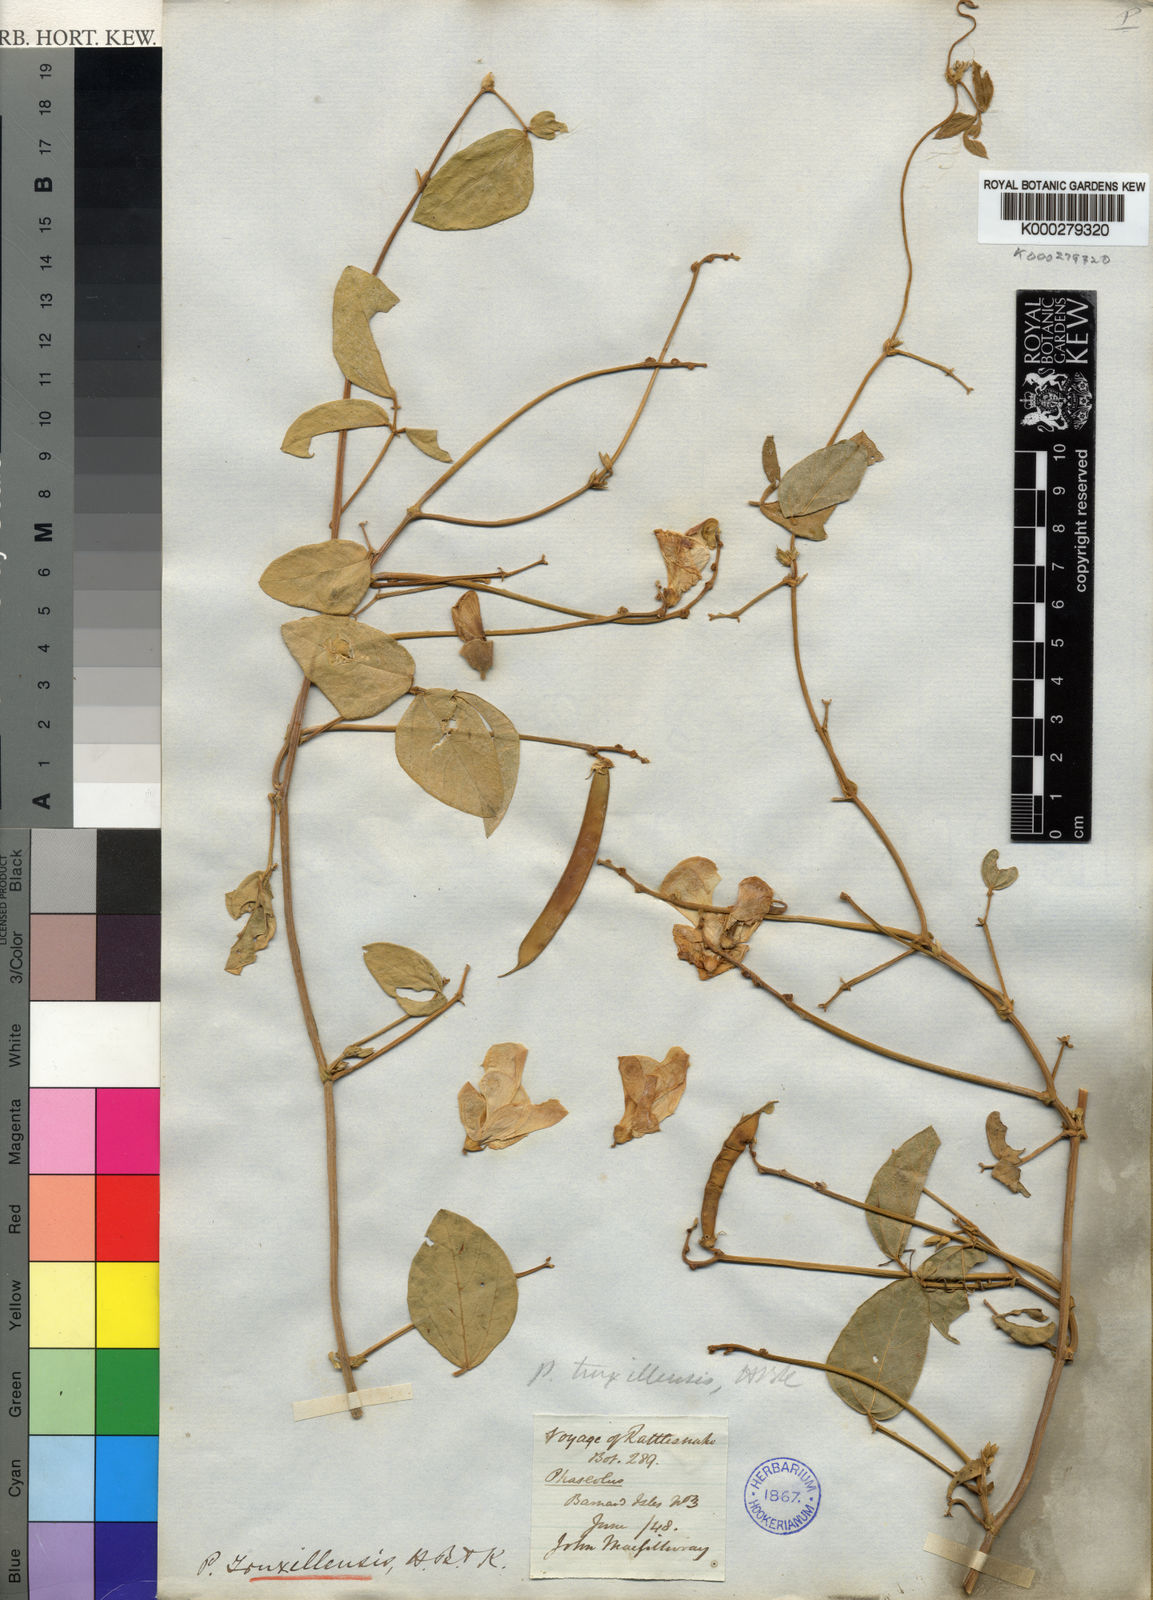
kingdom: Plantae
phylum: Tracheophyta
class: Magnoliopsida
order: Fabales
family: Fabaceae
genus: Vigna
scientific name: Vigna truxillensis
